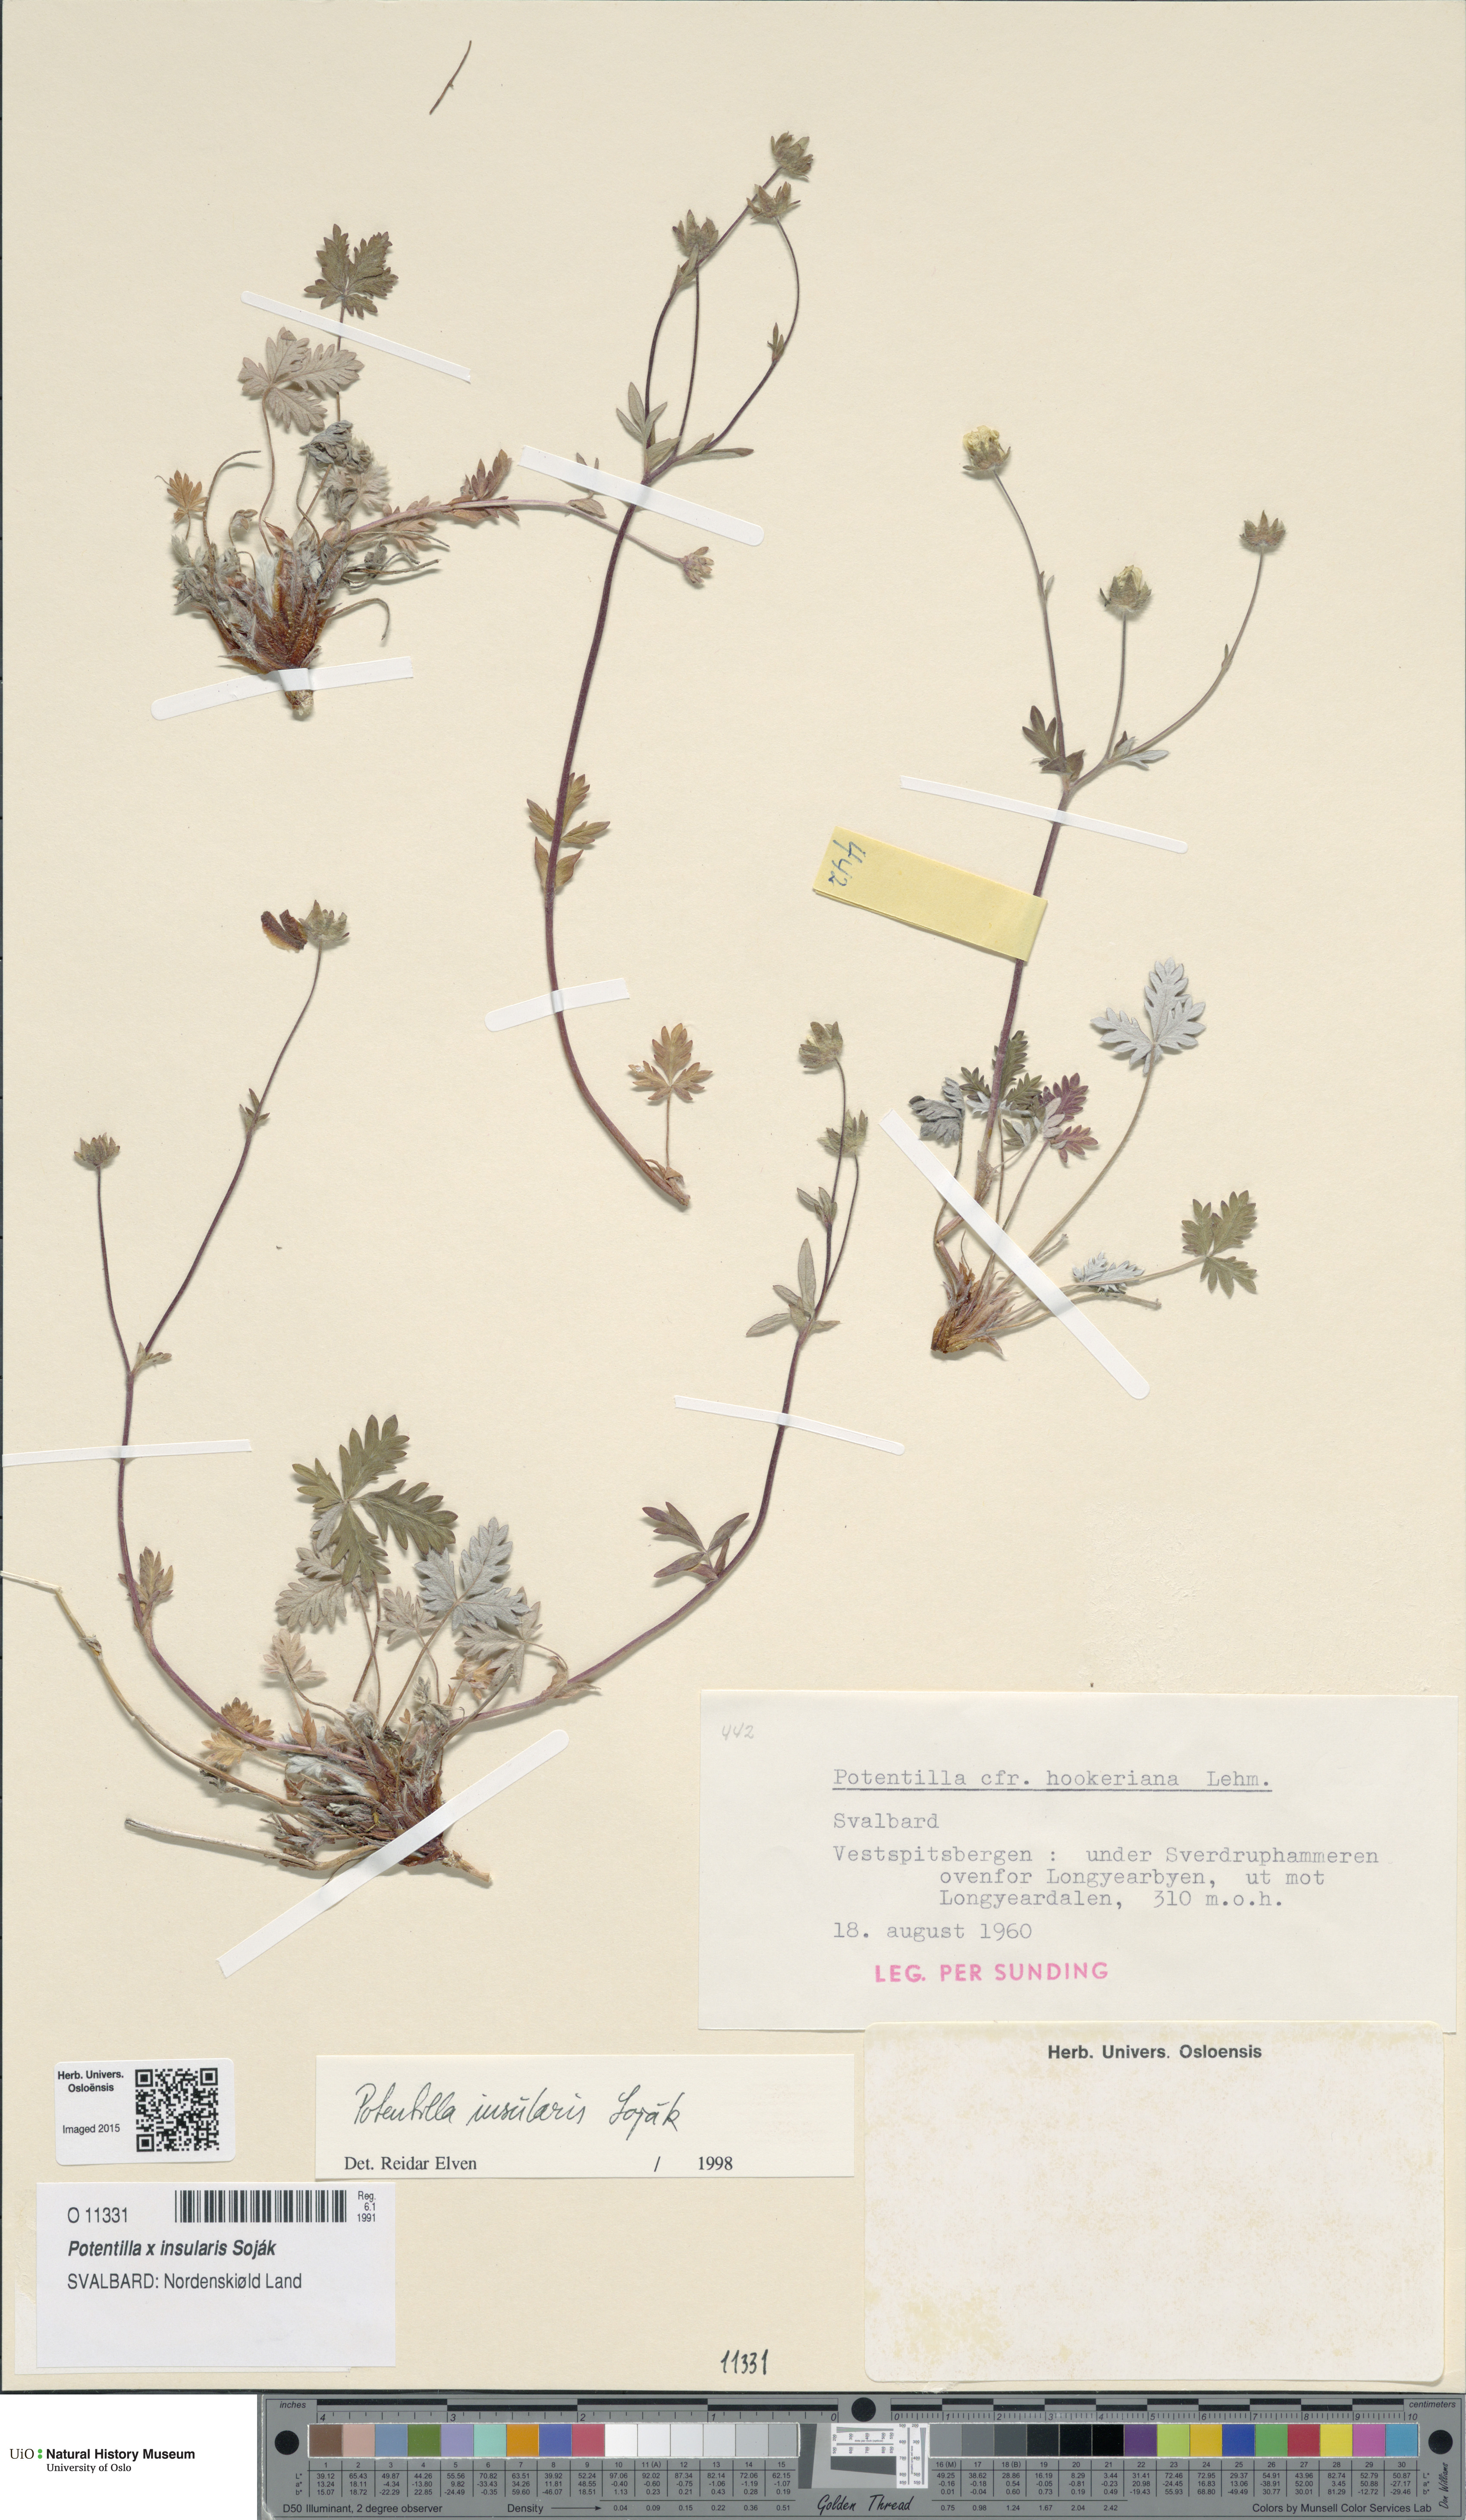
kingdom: Plantae
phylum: Tracheophyta
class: Magnoliopsida
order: Rosales
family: Rosaceae
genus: Potentilla
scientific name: Potentilla insularis
